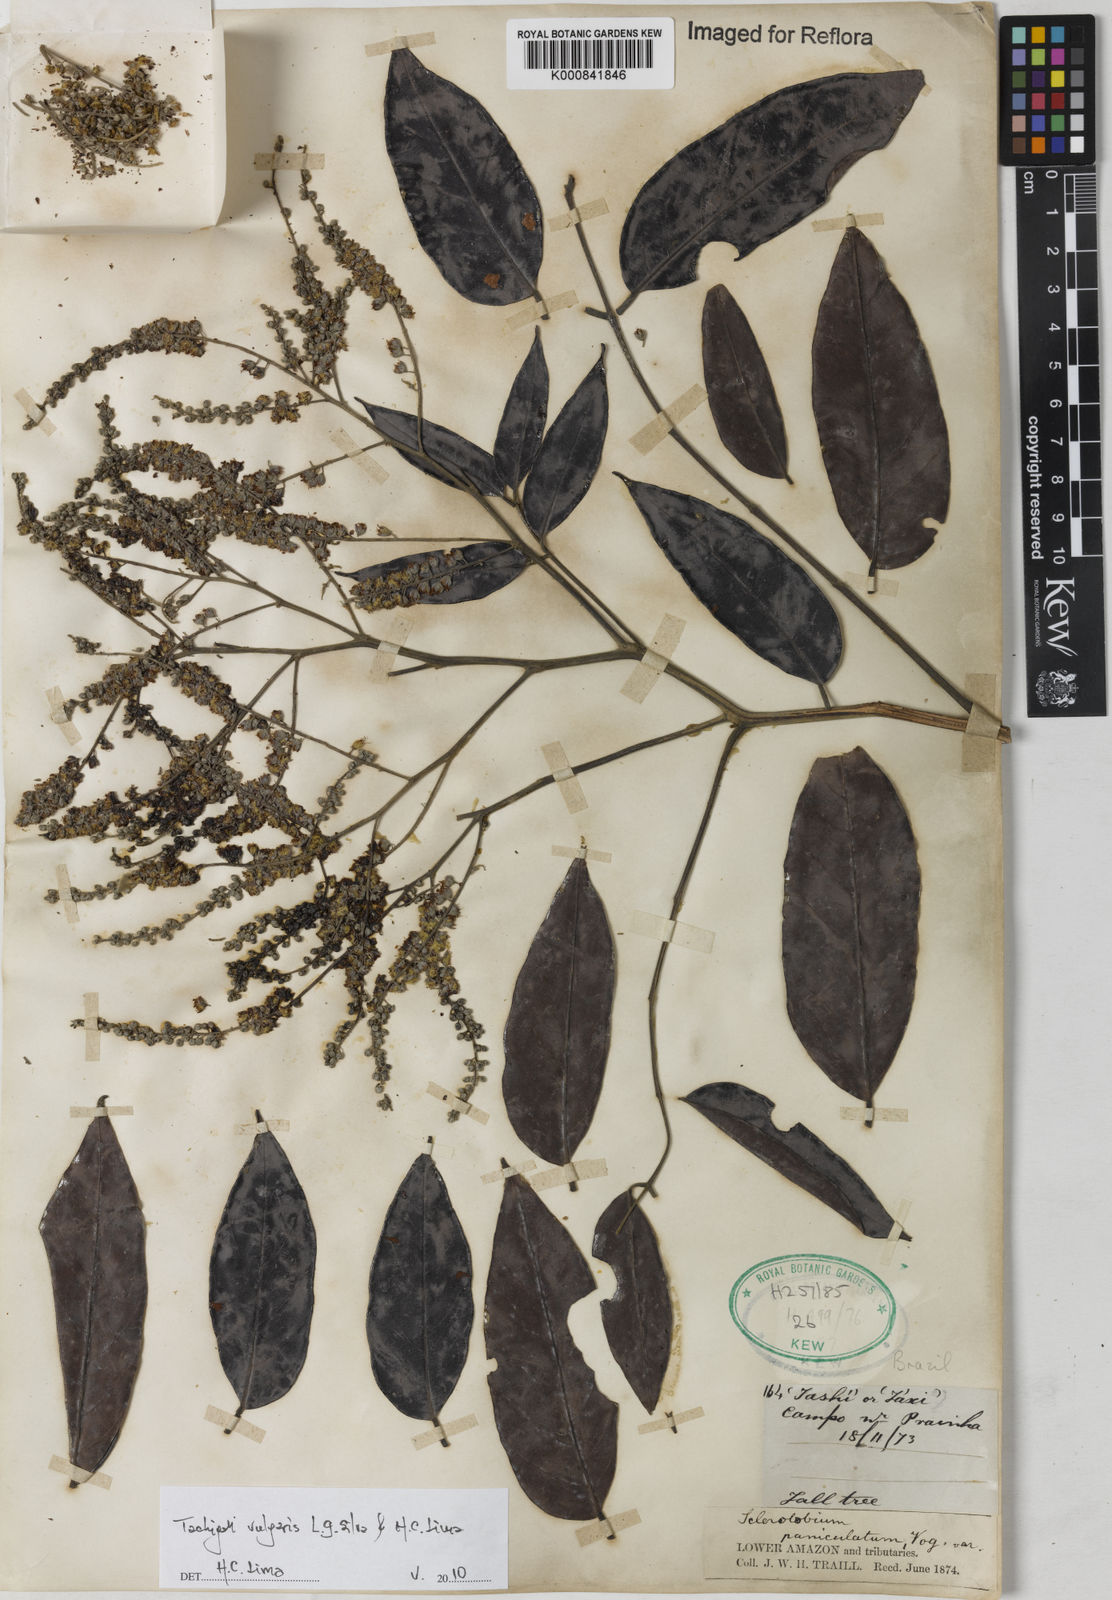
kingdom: Plantae
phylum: Tracheophyta
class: Magnoliopsida
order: Fabales
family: Fabaceae
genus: Tachigali
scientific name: Tachigali vulgaris
